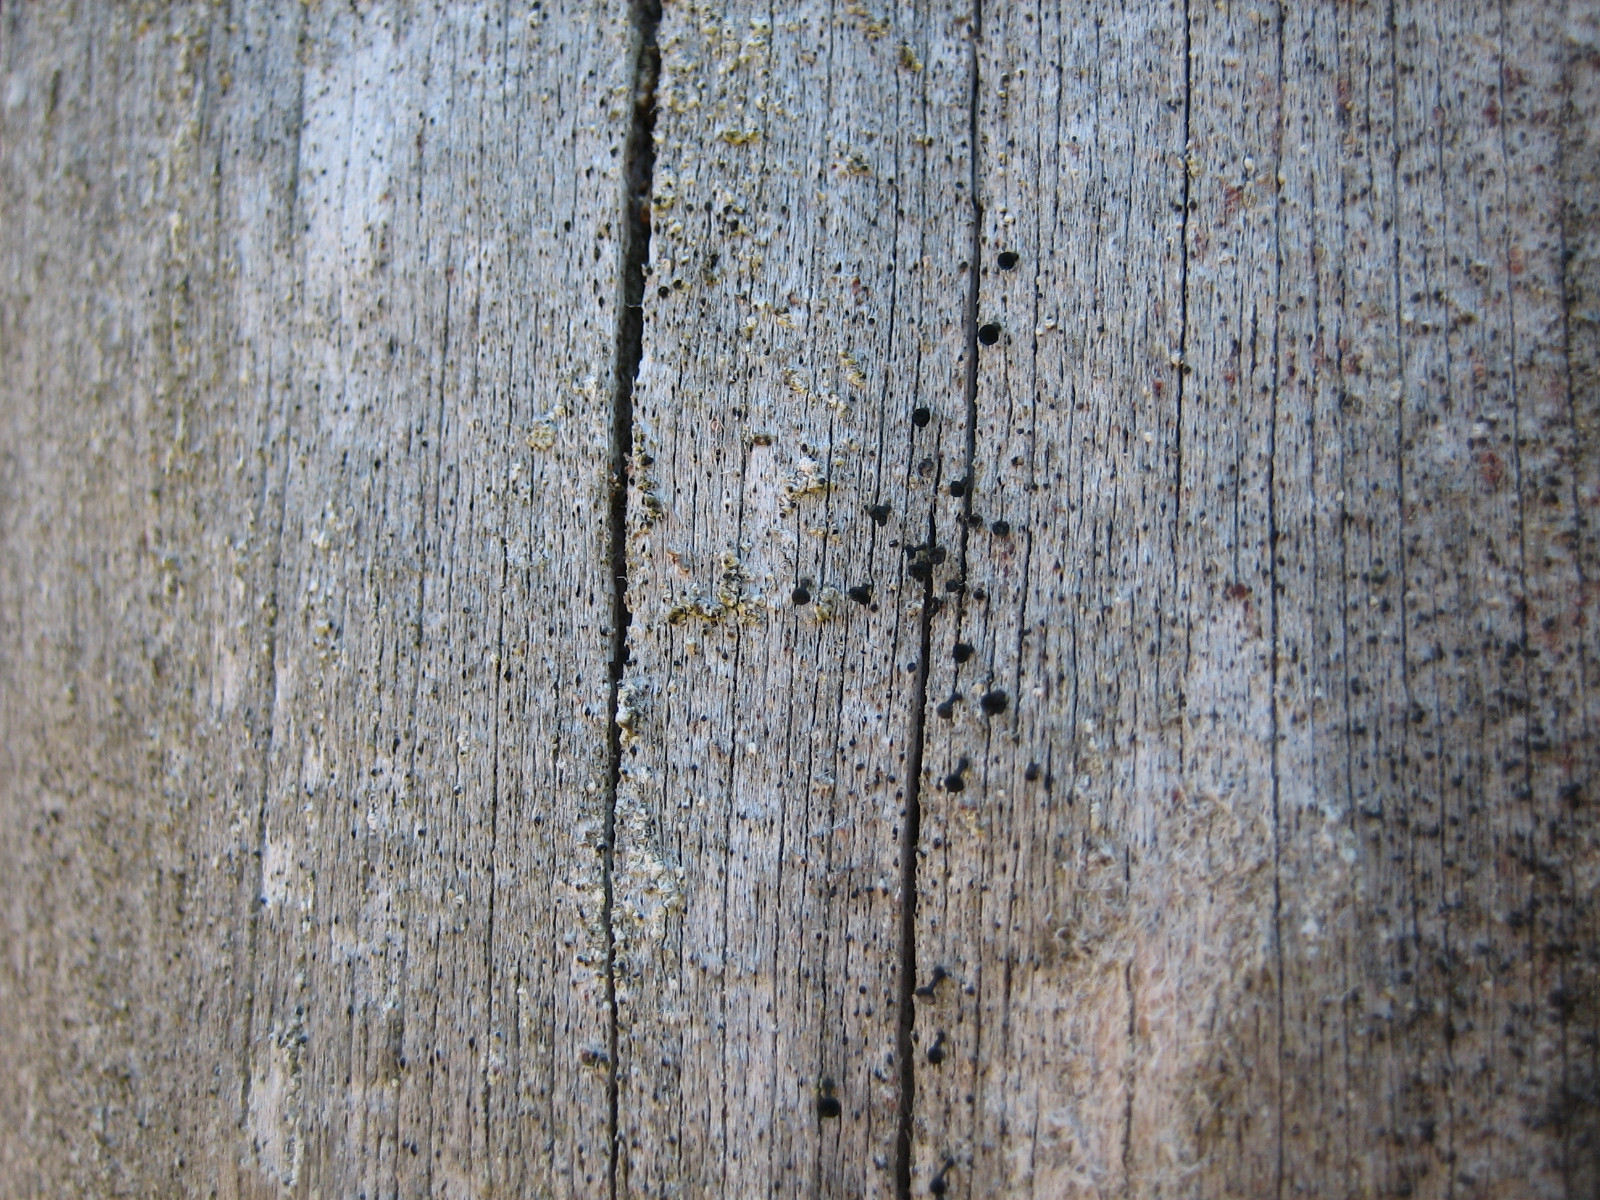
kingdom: Fungi
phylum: Ascomycota
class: Lecanoromycetes
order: Caliciales
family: Caliciaceae
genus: Calicium
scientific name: Calicium glaucellum
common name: grågrøn nålelav
